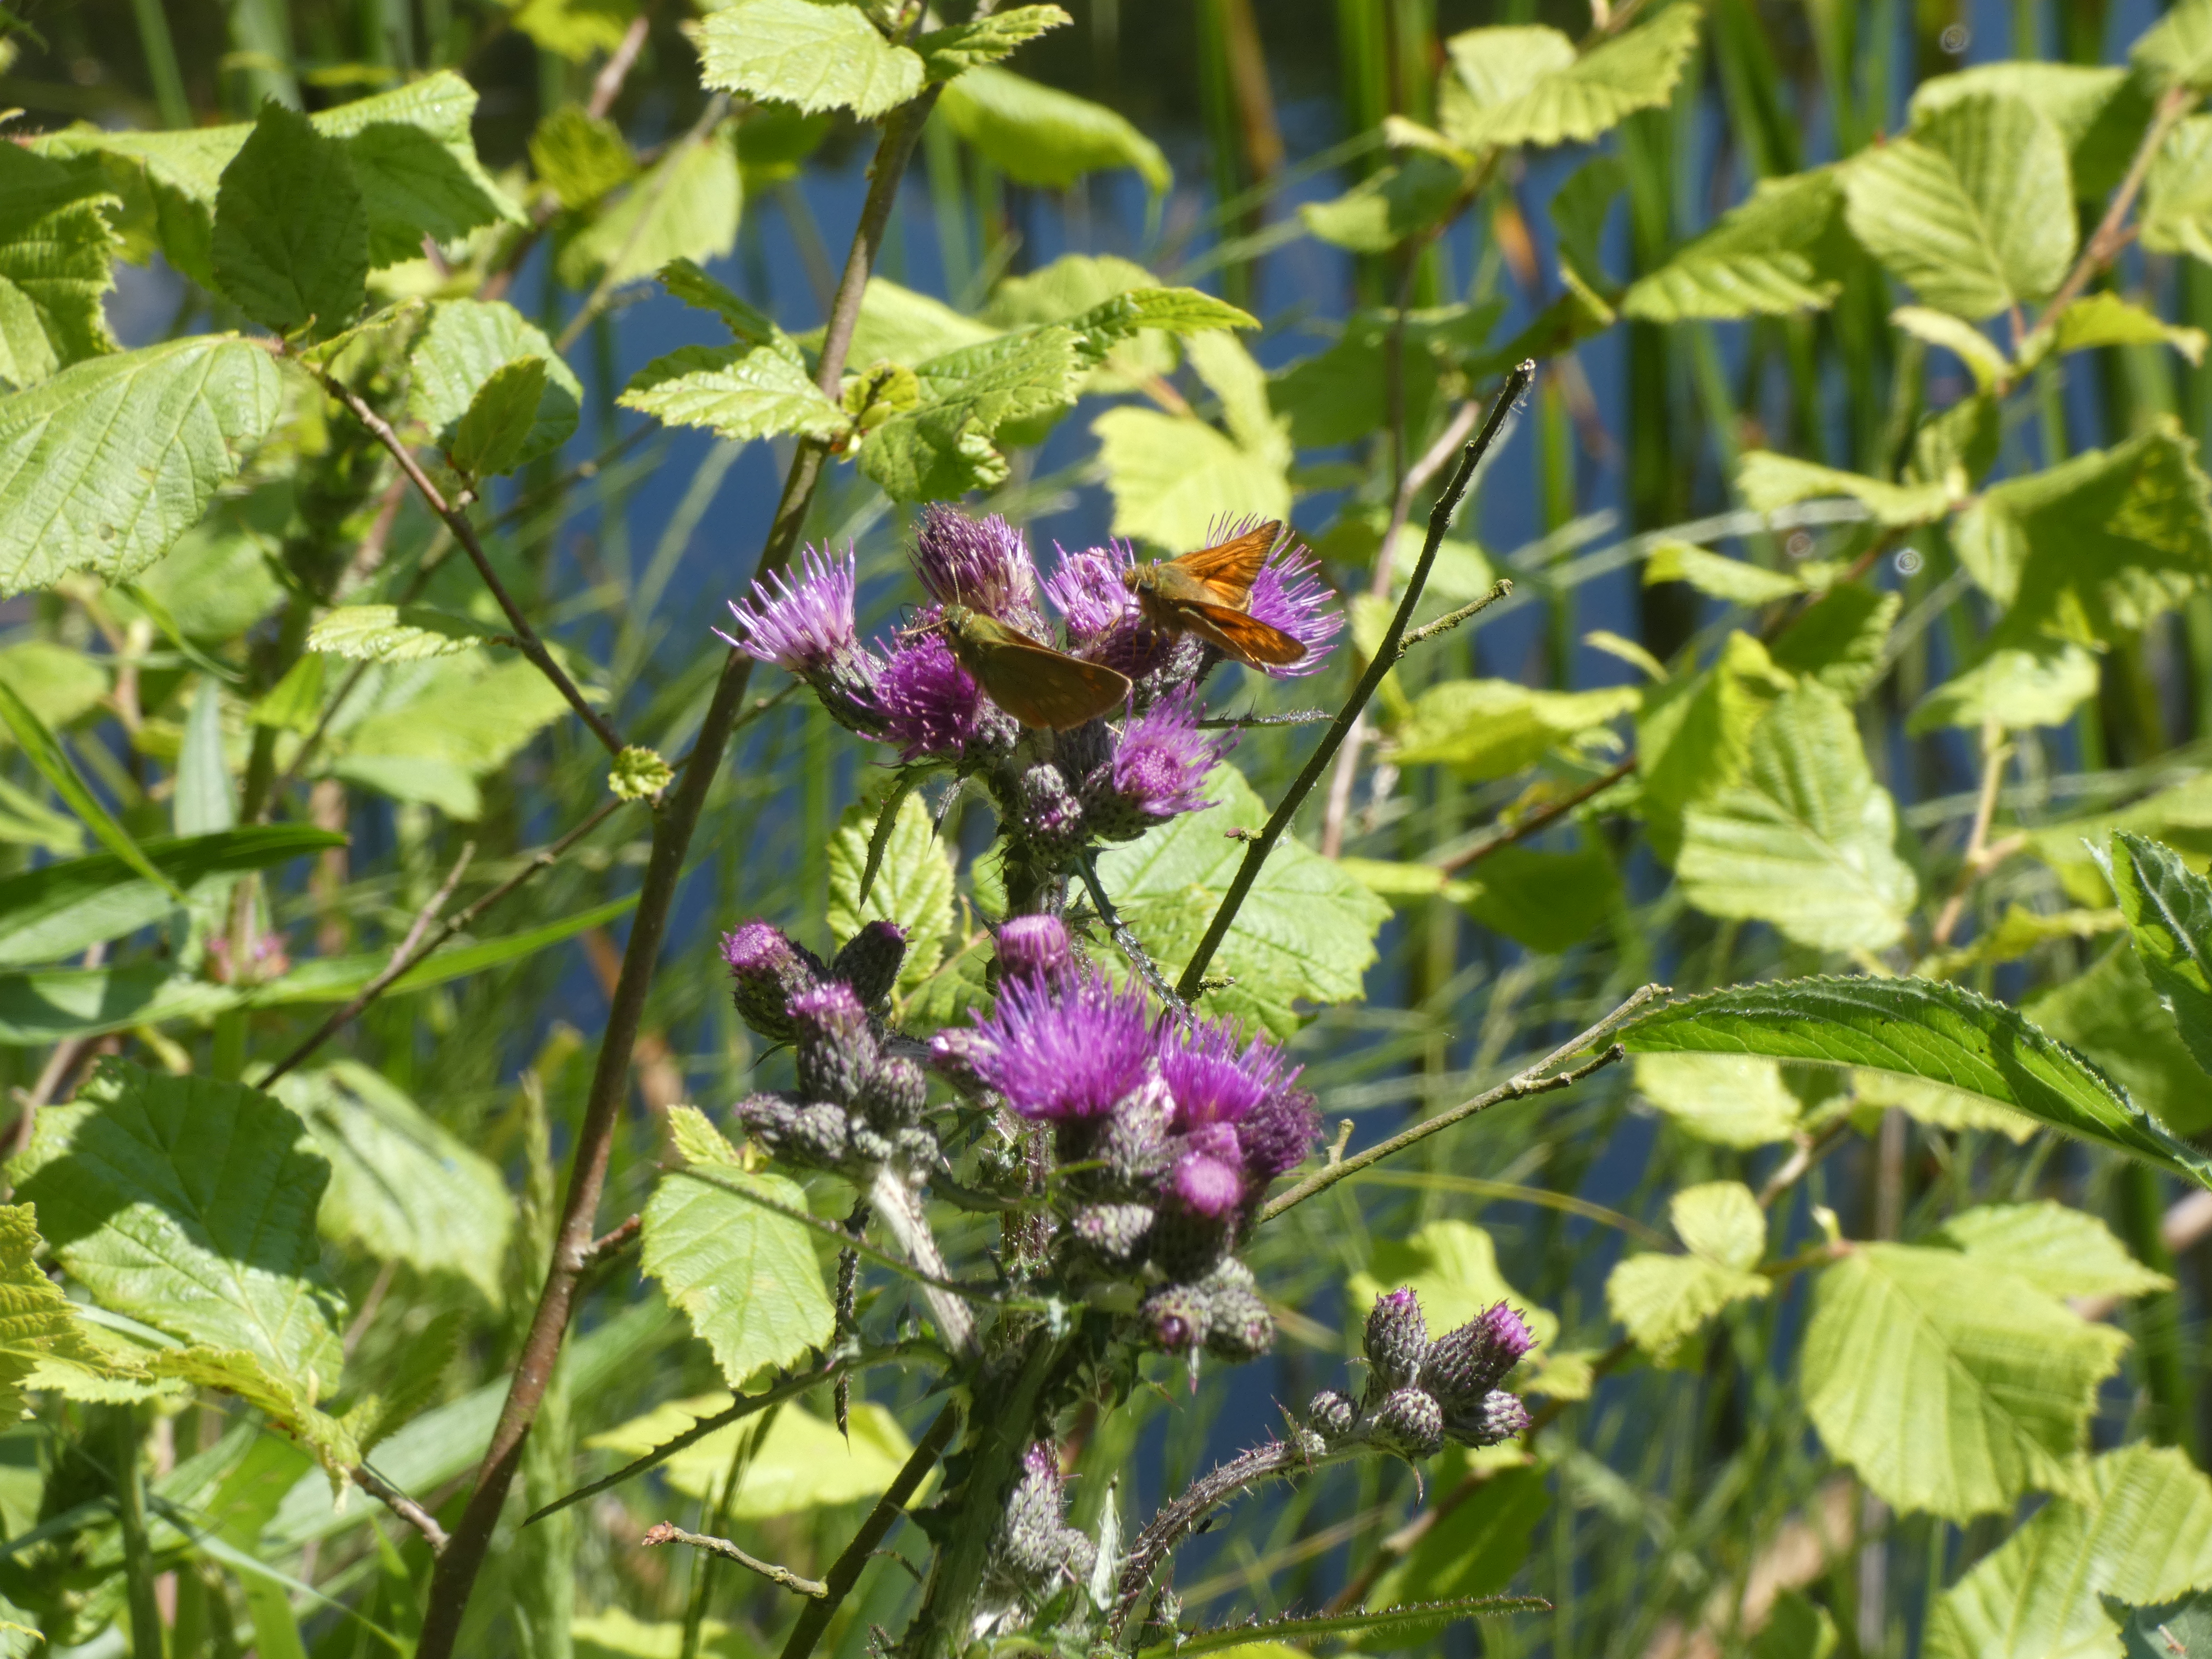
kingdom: Plantae
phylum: Tracheophyta
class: Magnoliopsida
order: Asterales
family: Asteraceae
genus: Cirsium
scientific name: Cirsium palustre
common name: Kær-tidsel
